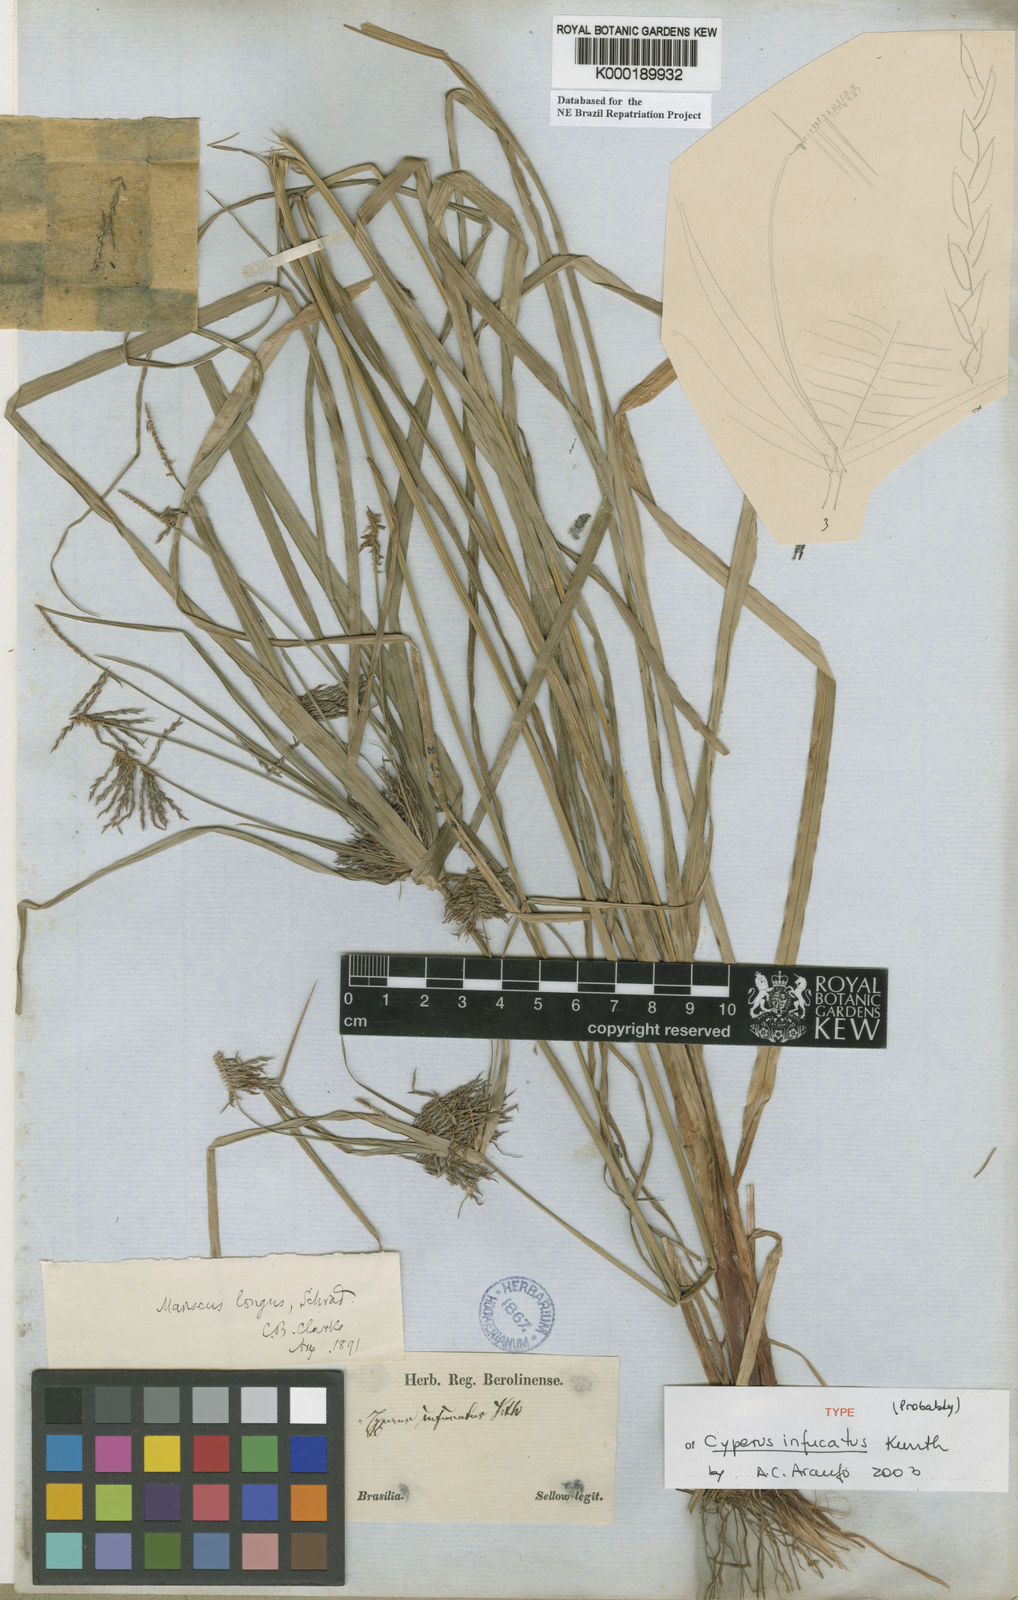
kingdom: Plantae
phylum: Tracheophyta
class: Liliopsida
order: Poales
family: Cyperaceae
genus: Cyperus
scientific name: Cyperus infucatus
